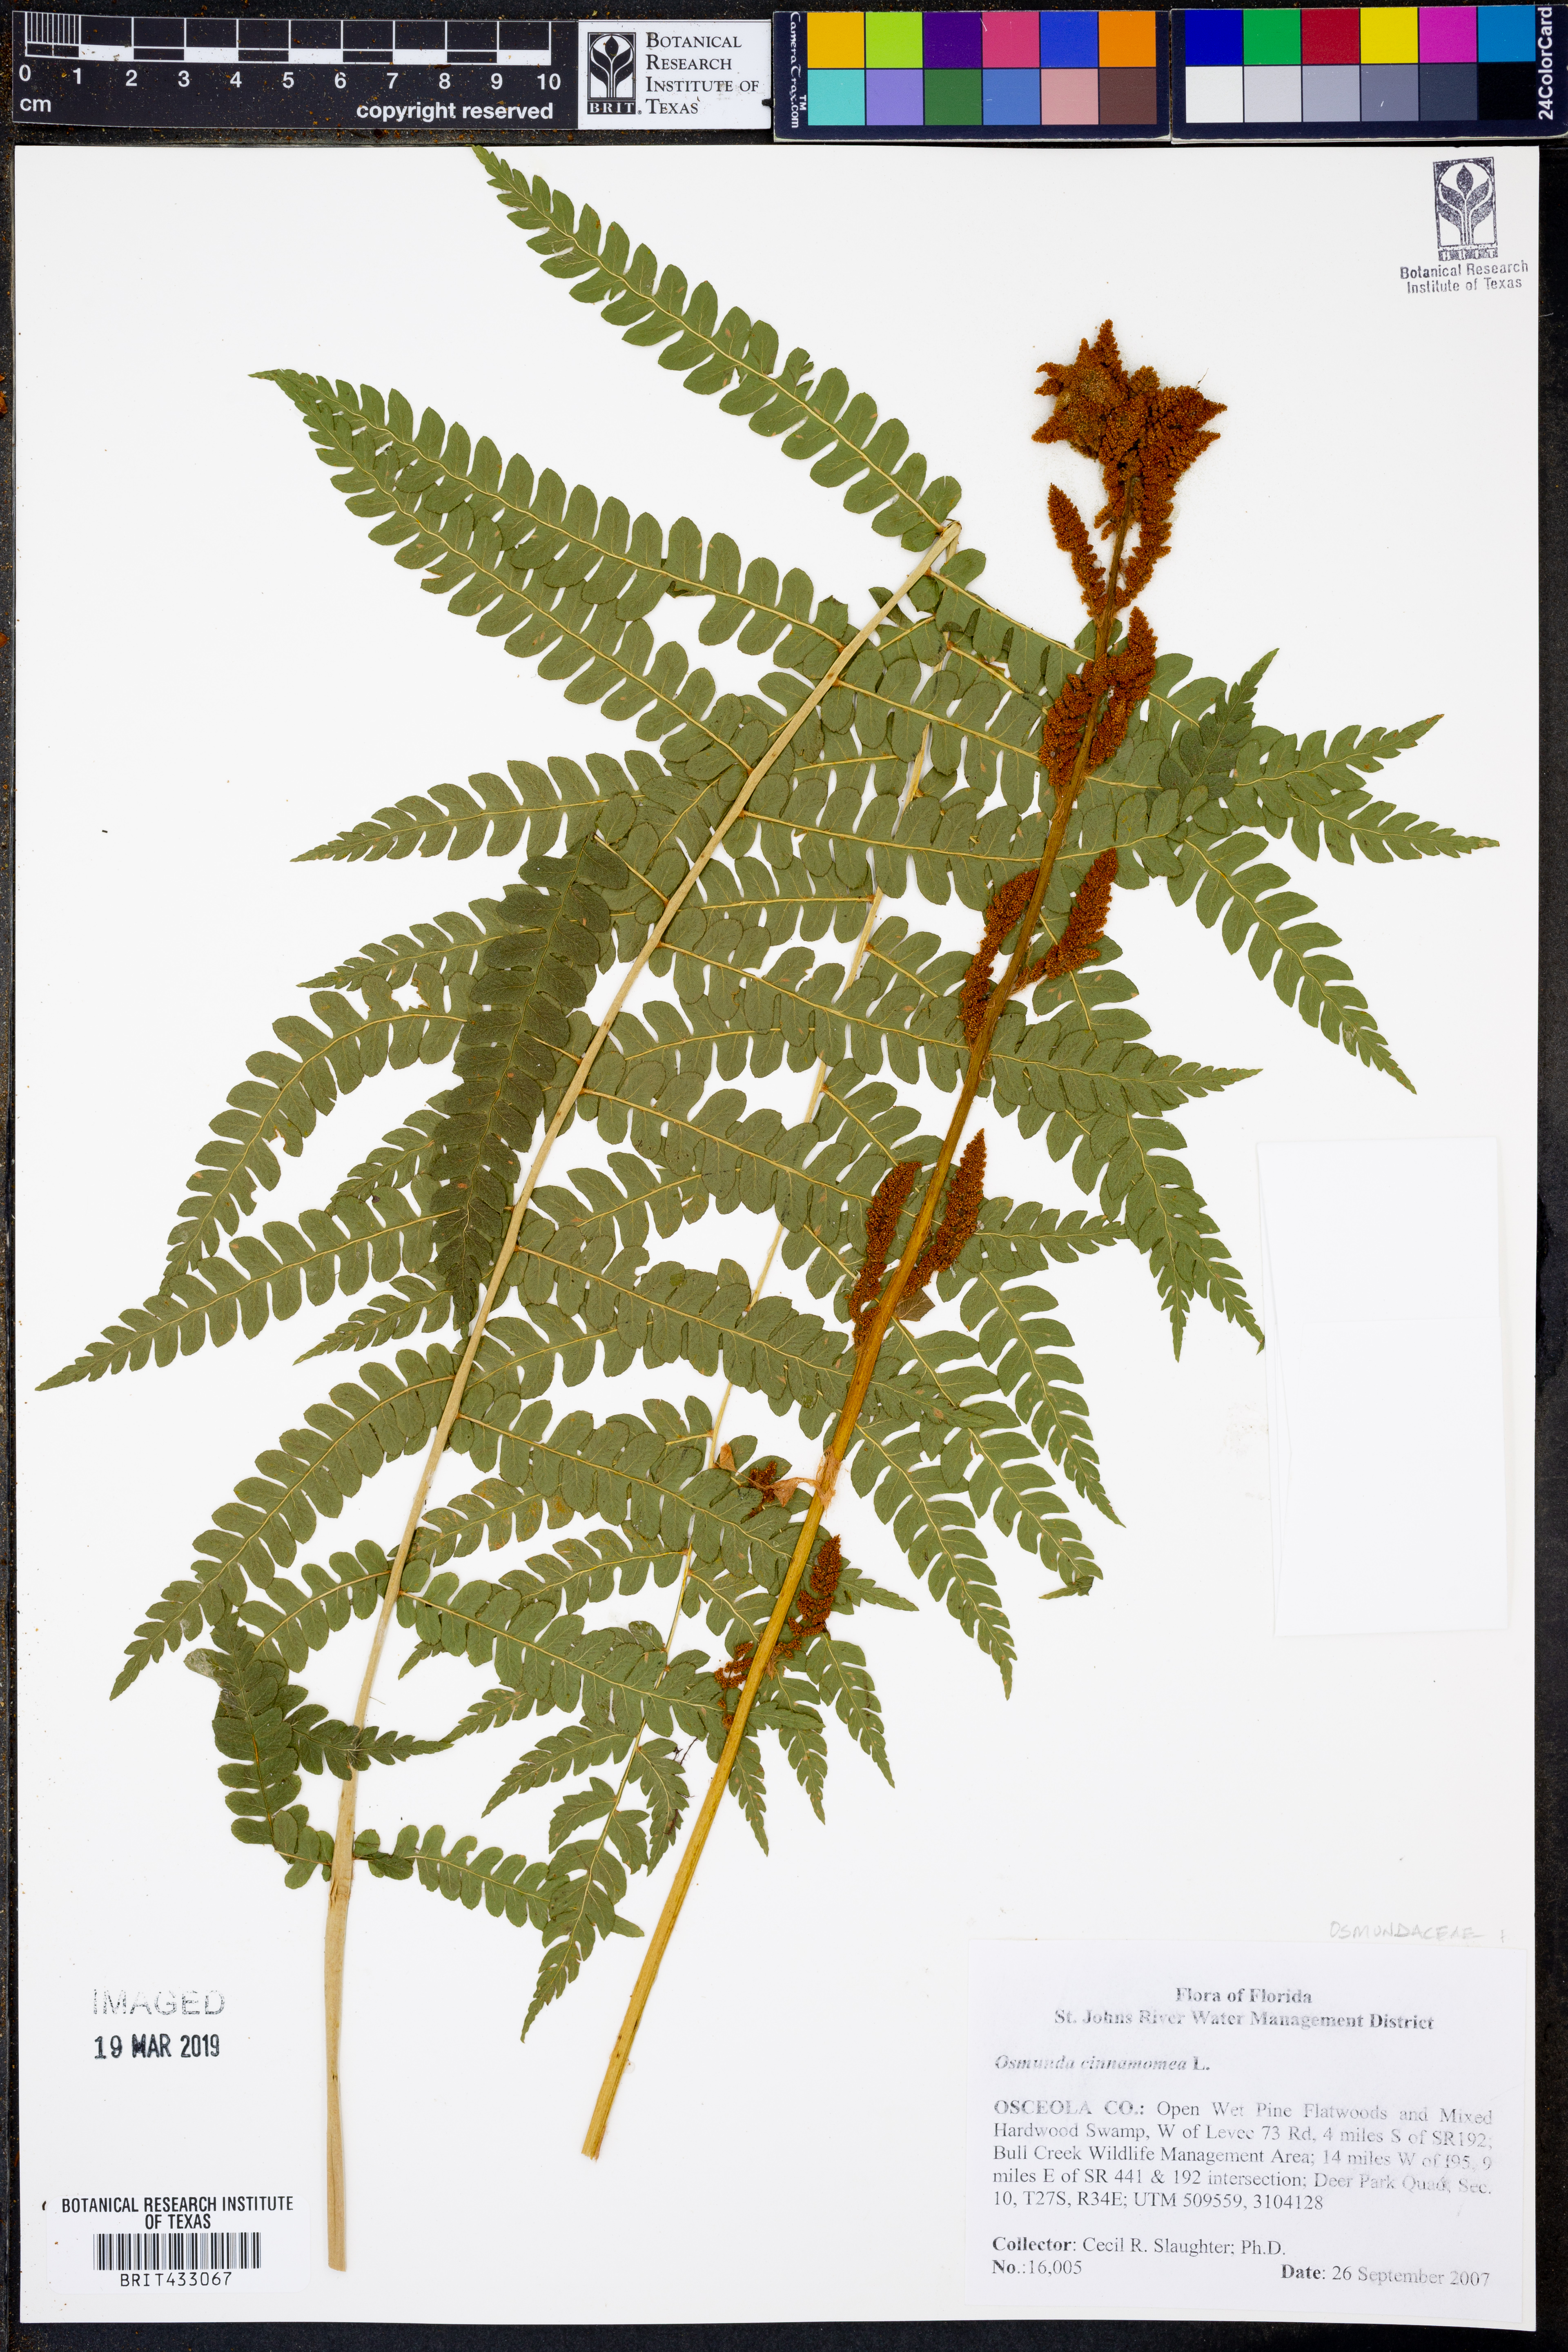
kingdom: Plantae
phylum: Tracheophyta
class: Polypodiopsida
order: Osmundales
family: Osmundaceae
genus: Osmundastrum
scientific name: Osmundastrum cinnamomeum
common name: Cinnamon fern
